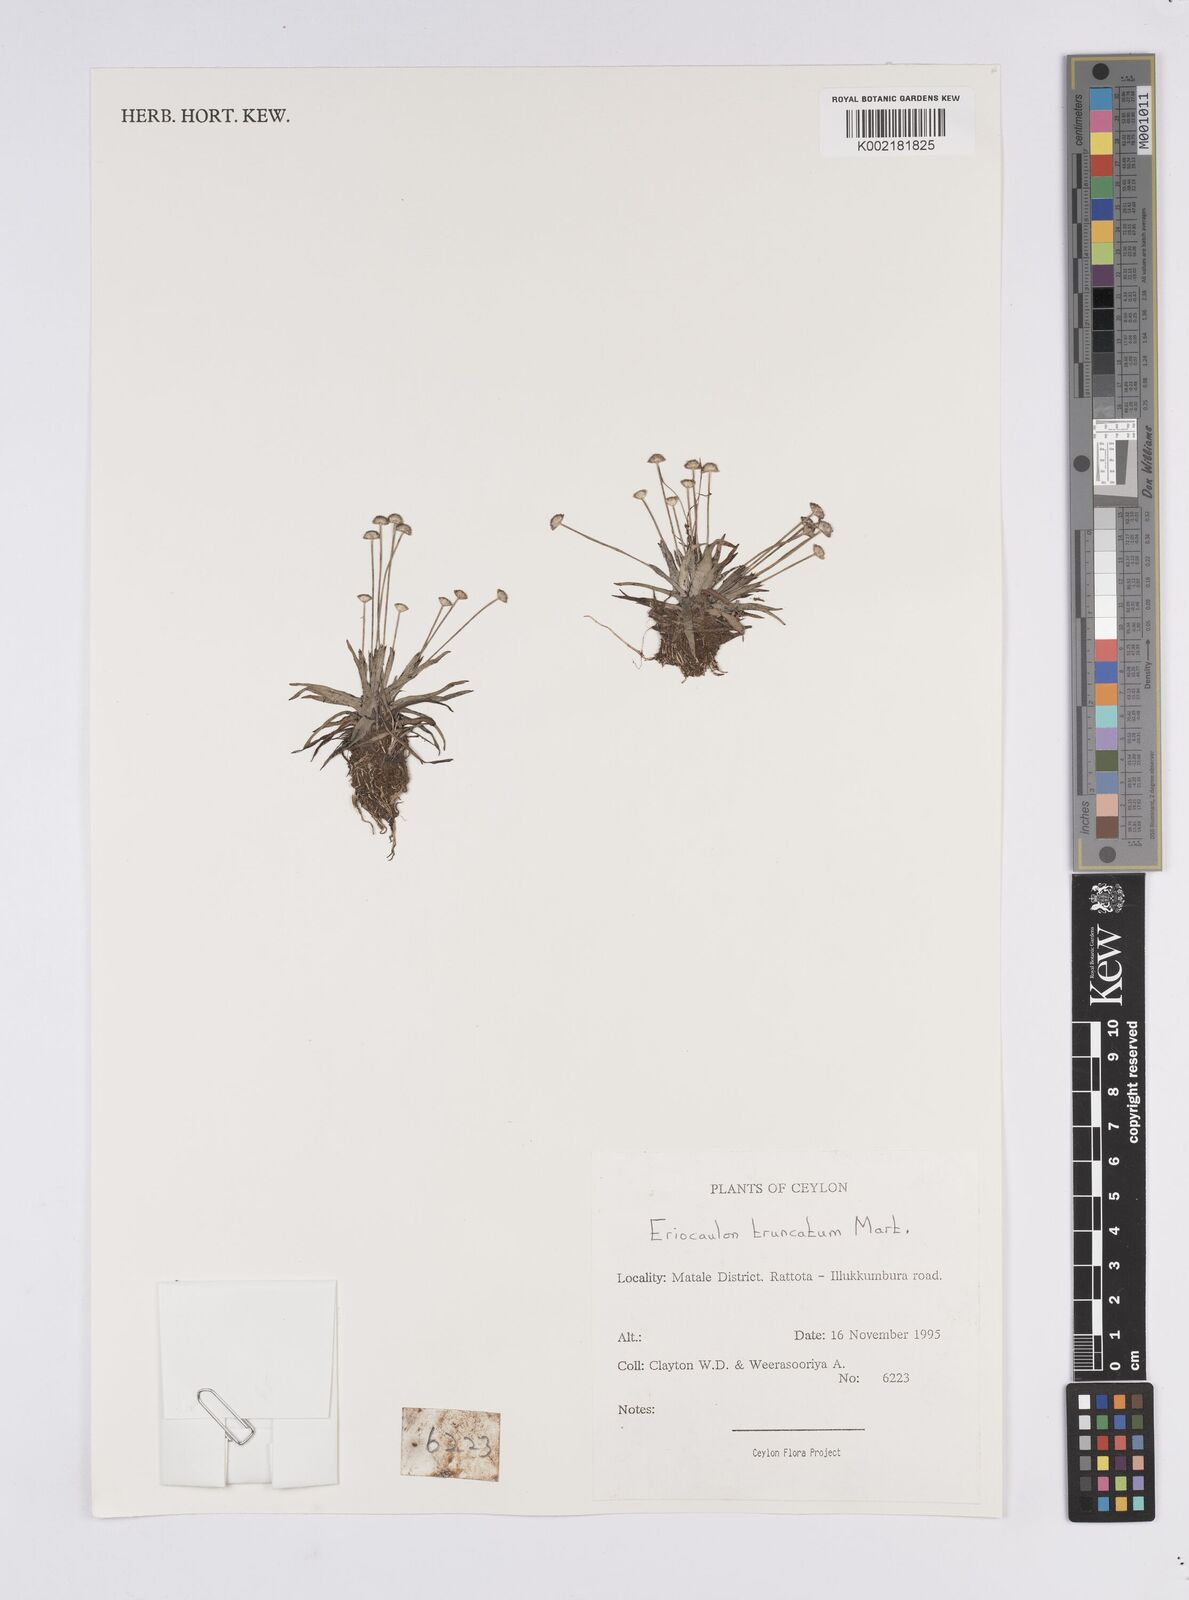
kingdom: Plantae
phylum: Tracheophyta
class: Liliopsida
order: Poales
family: Eriocaulaceae
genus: Eriocaulon
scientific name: Eriocaulon truncatum
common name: Short pipe-wort
